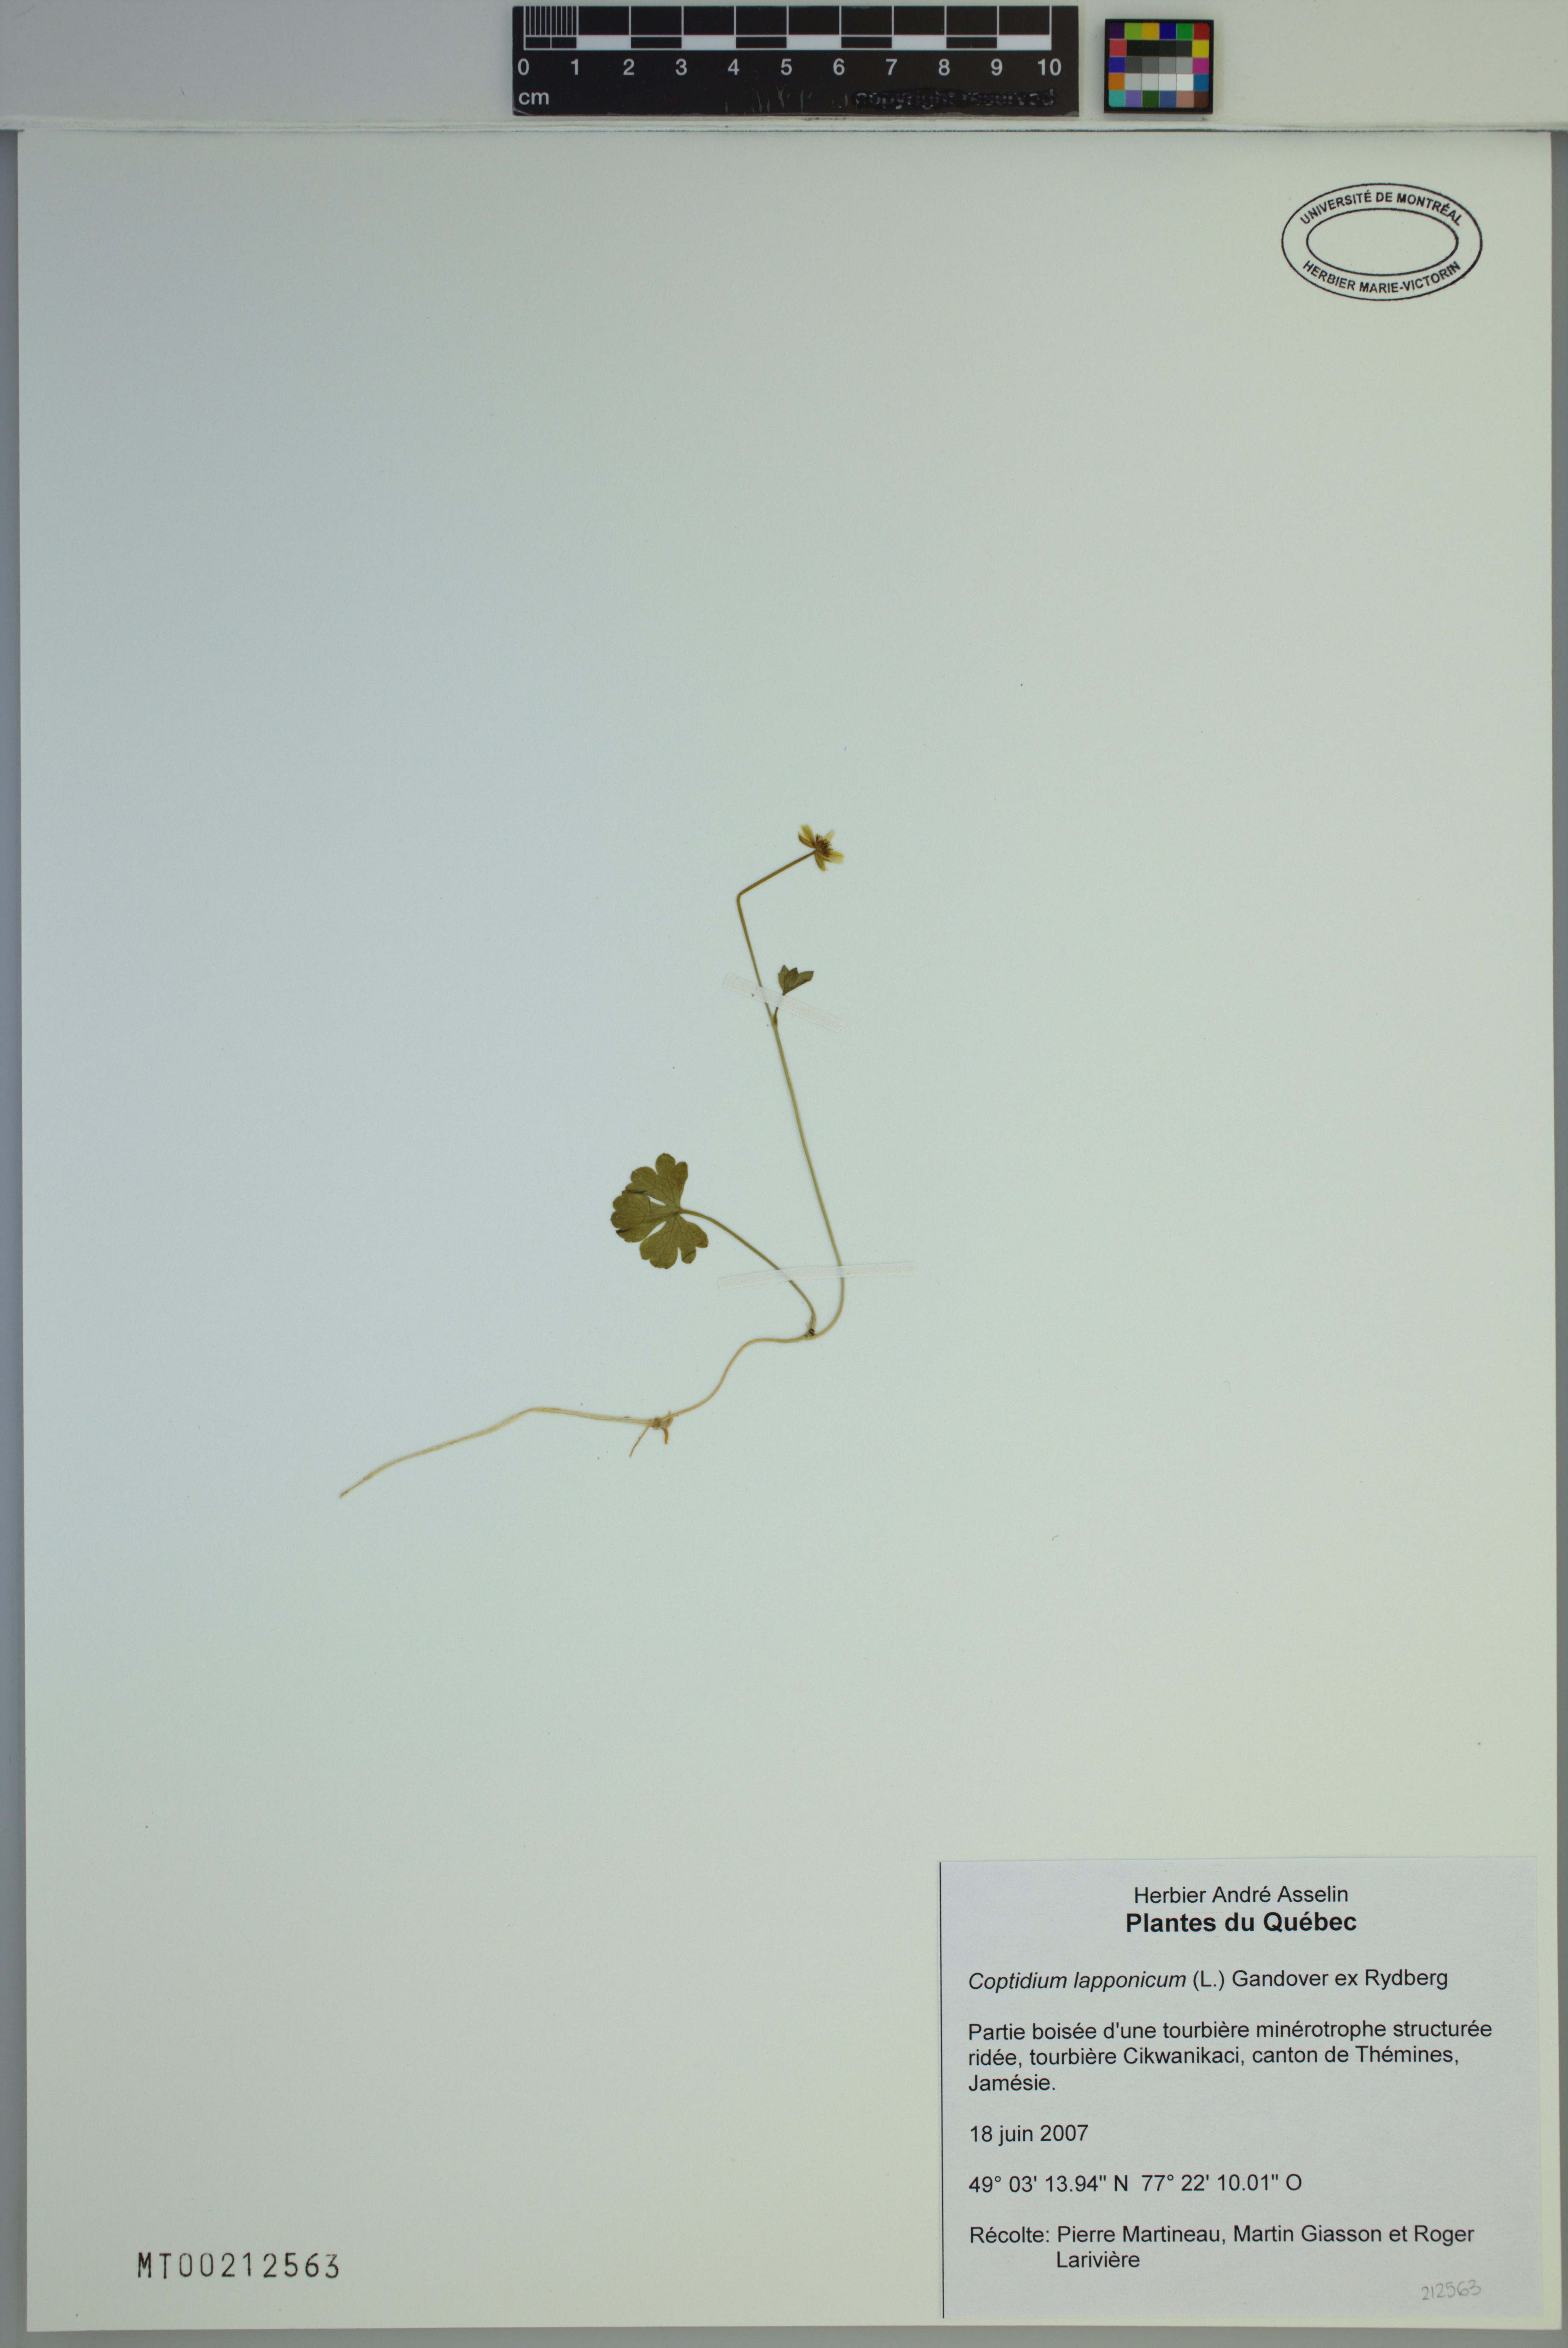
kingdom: Plantae
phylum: Tracheophyta
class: Magnoliopsida
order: Ranunculales
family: Ranunculaceae
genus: Coptidium
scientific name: Coptidium lapponicum
